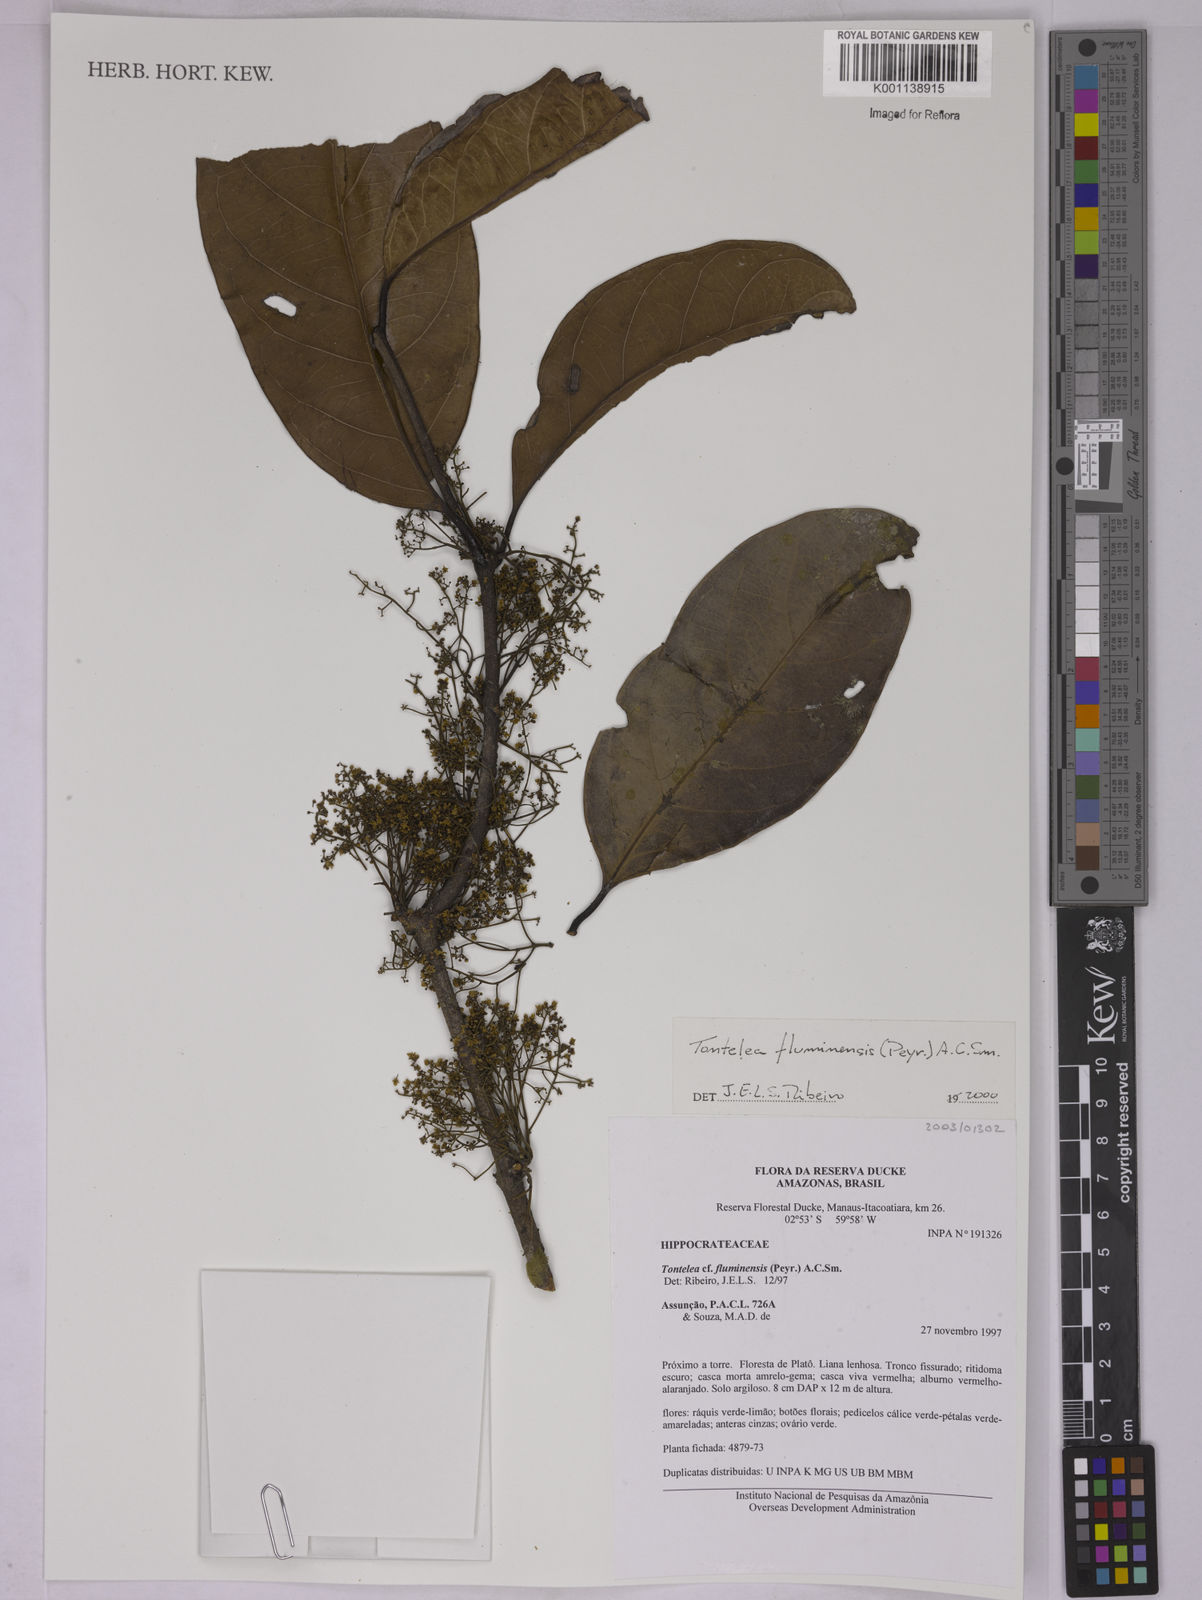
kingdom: Plantae
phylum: Tracheophyta
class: Magnoliopsida
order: Celastrales
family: Celastraceae
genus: Tontelea
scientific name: Tontelea passiflora
